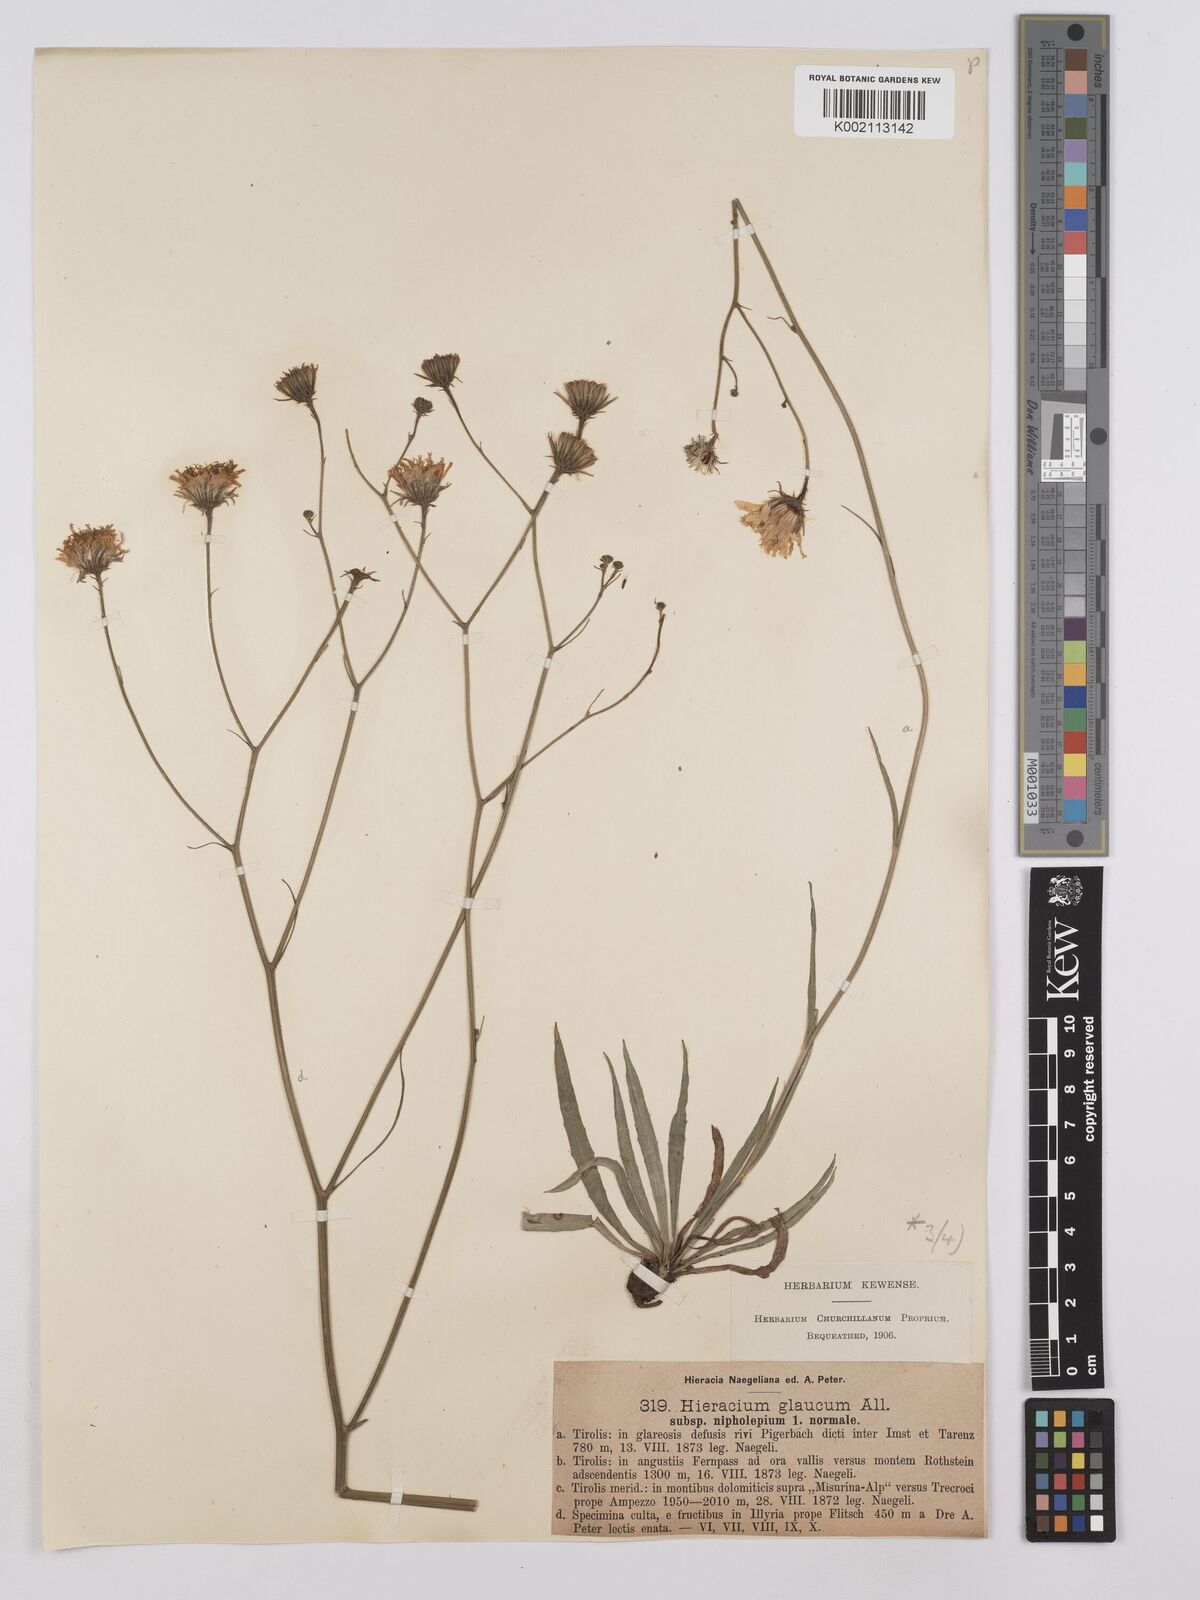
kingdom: Plantae
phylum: Tracheophyta
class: Magnoliopsida
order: Asterales
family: Asteraceae
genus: Hieracium
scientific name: Hieracium glaucum
